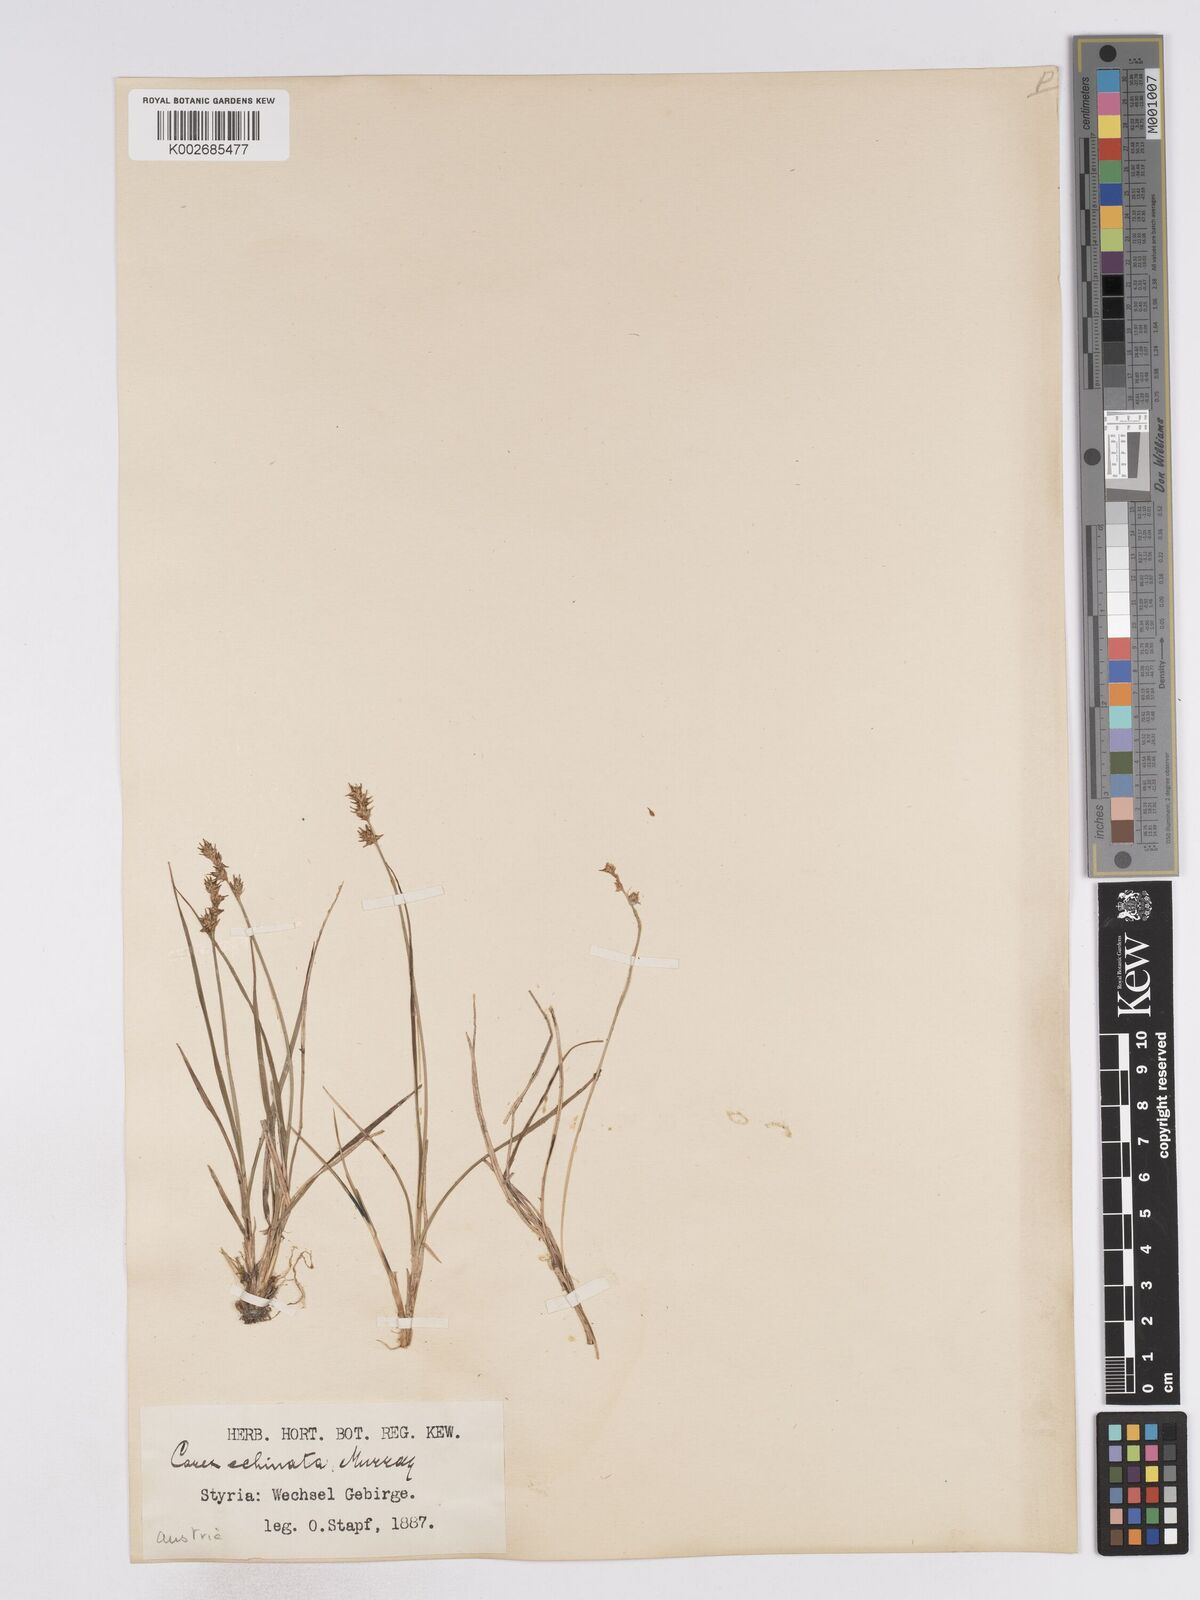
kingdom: Plantae
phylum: Tracheophyta
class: Liliopsida
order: Poales
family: Cyperaceae
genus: Carex
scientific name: Carex echinata
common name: Star sedge
